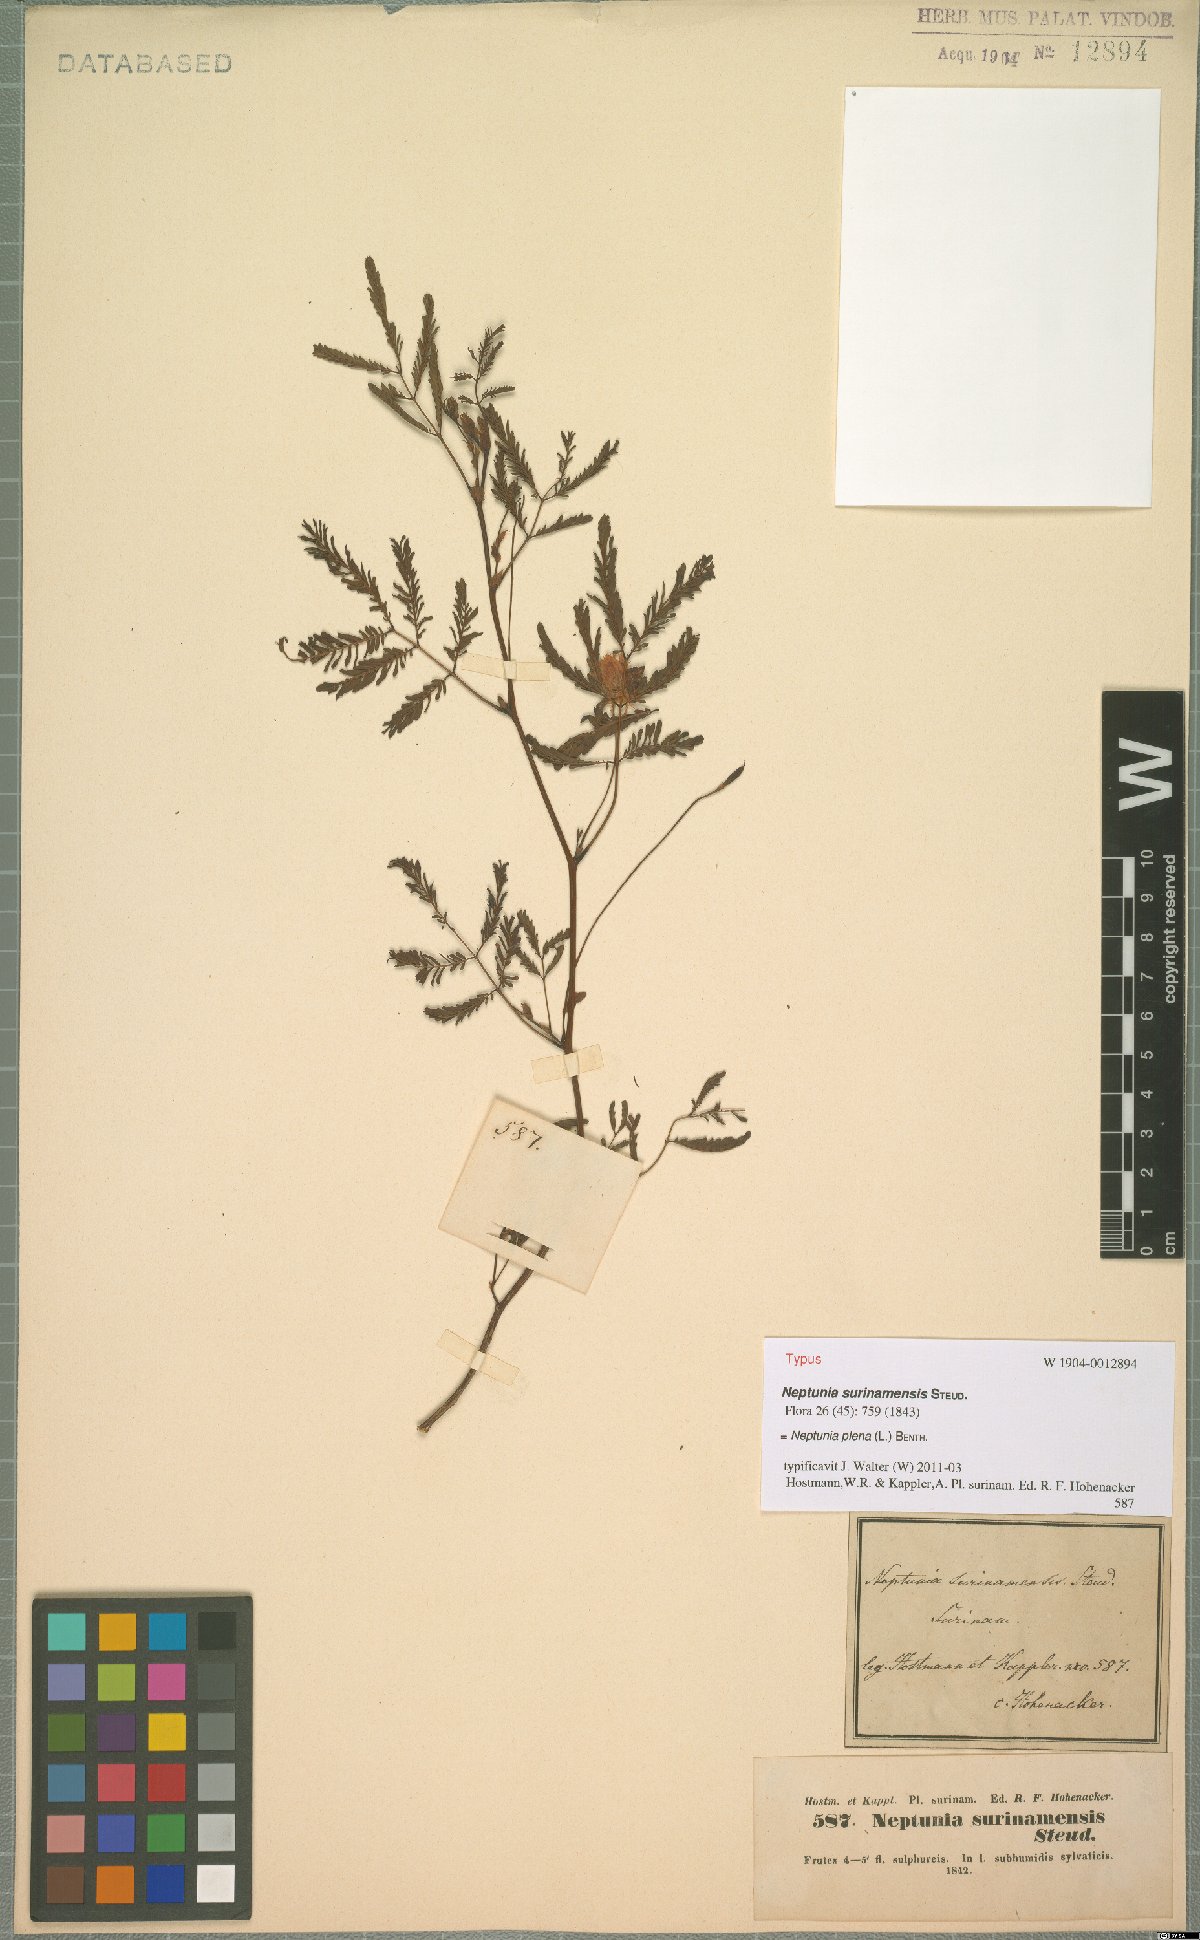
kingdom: Plantae
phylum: Tracheophyta
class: Magnoliopsida
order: Fabales
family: Fabaceae
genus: Neptunia
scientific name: Neptunia plena
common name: Dead and awake
